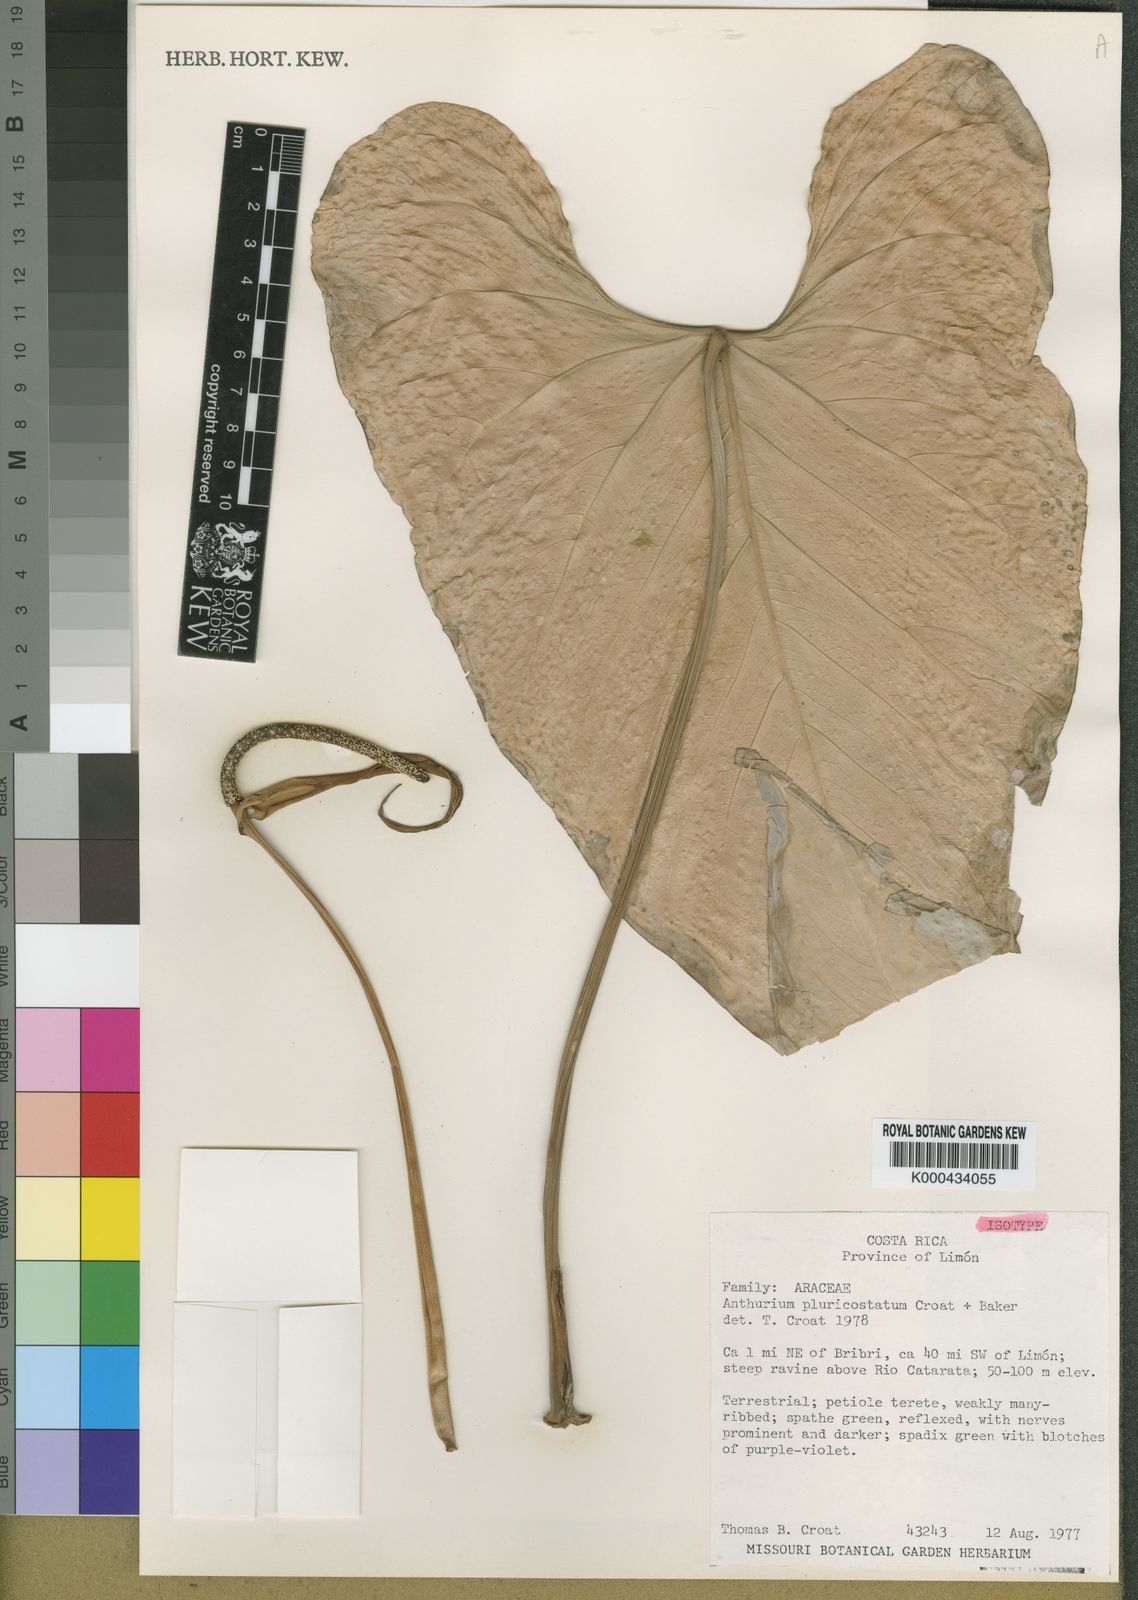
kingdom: Plantae
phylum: Tracheophyta
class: Liliopsida
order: Alismatales
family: Araceae
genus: Anthurium
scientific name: Anthurium ochranthum
